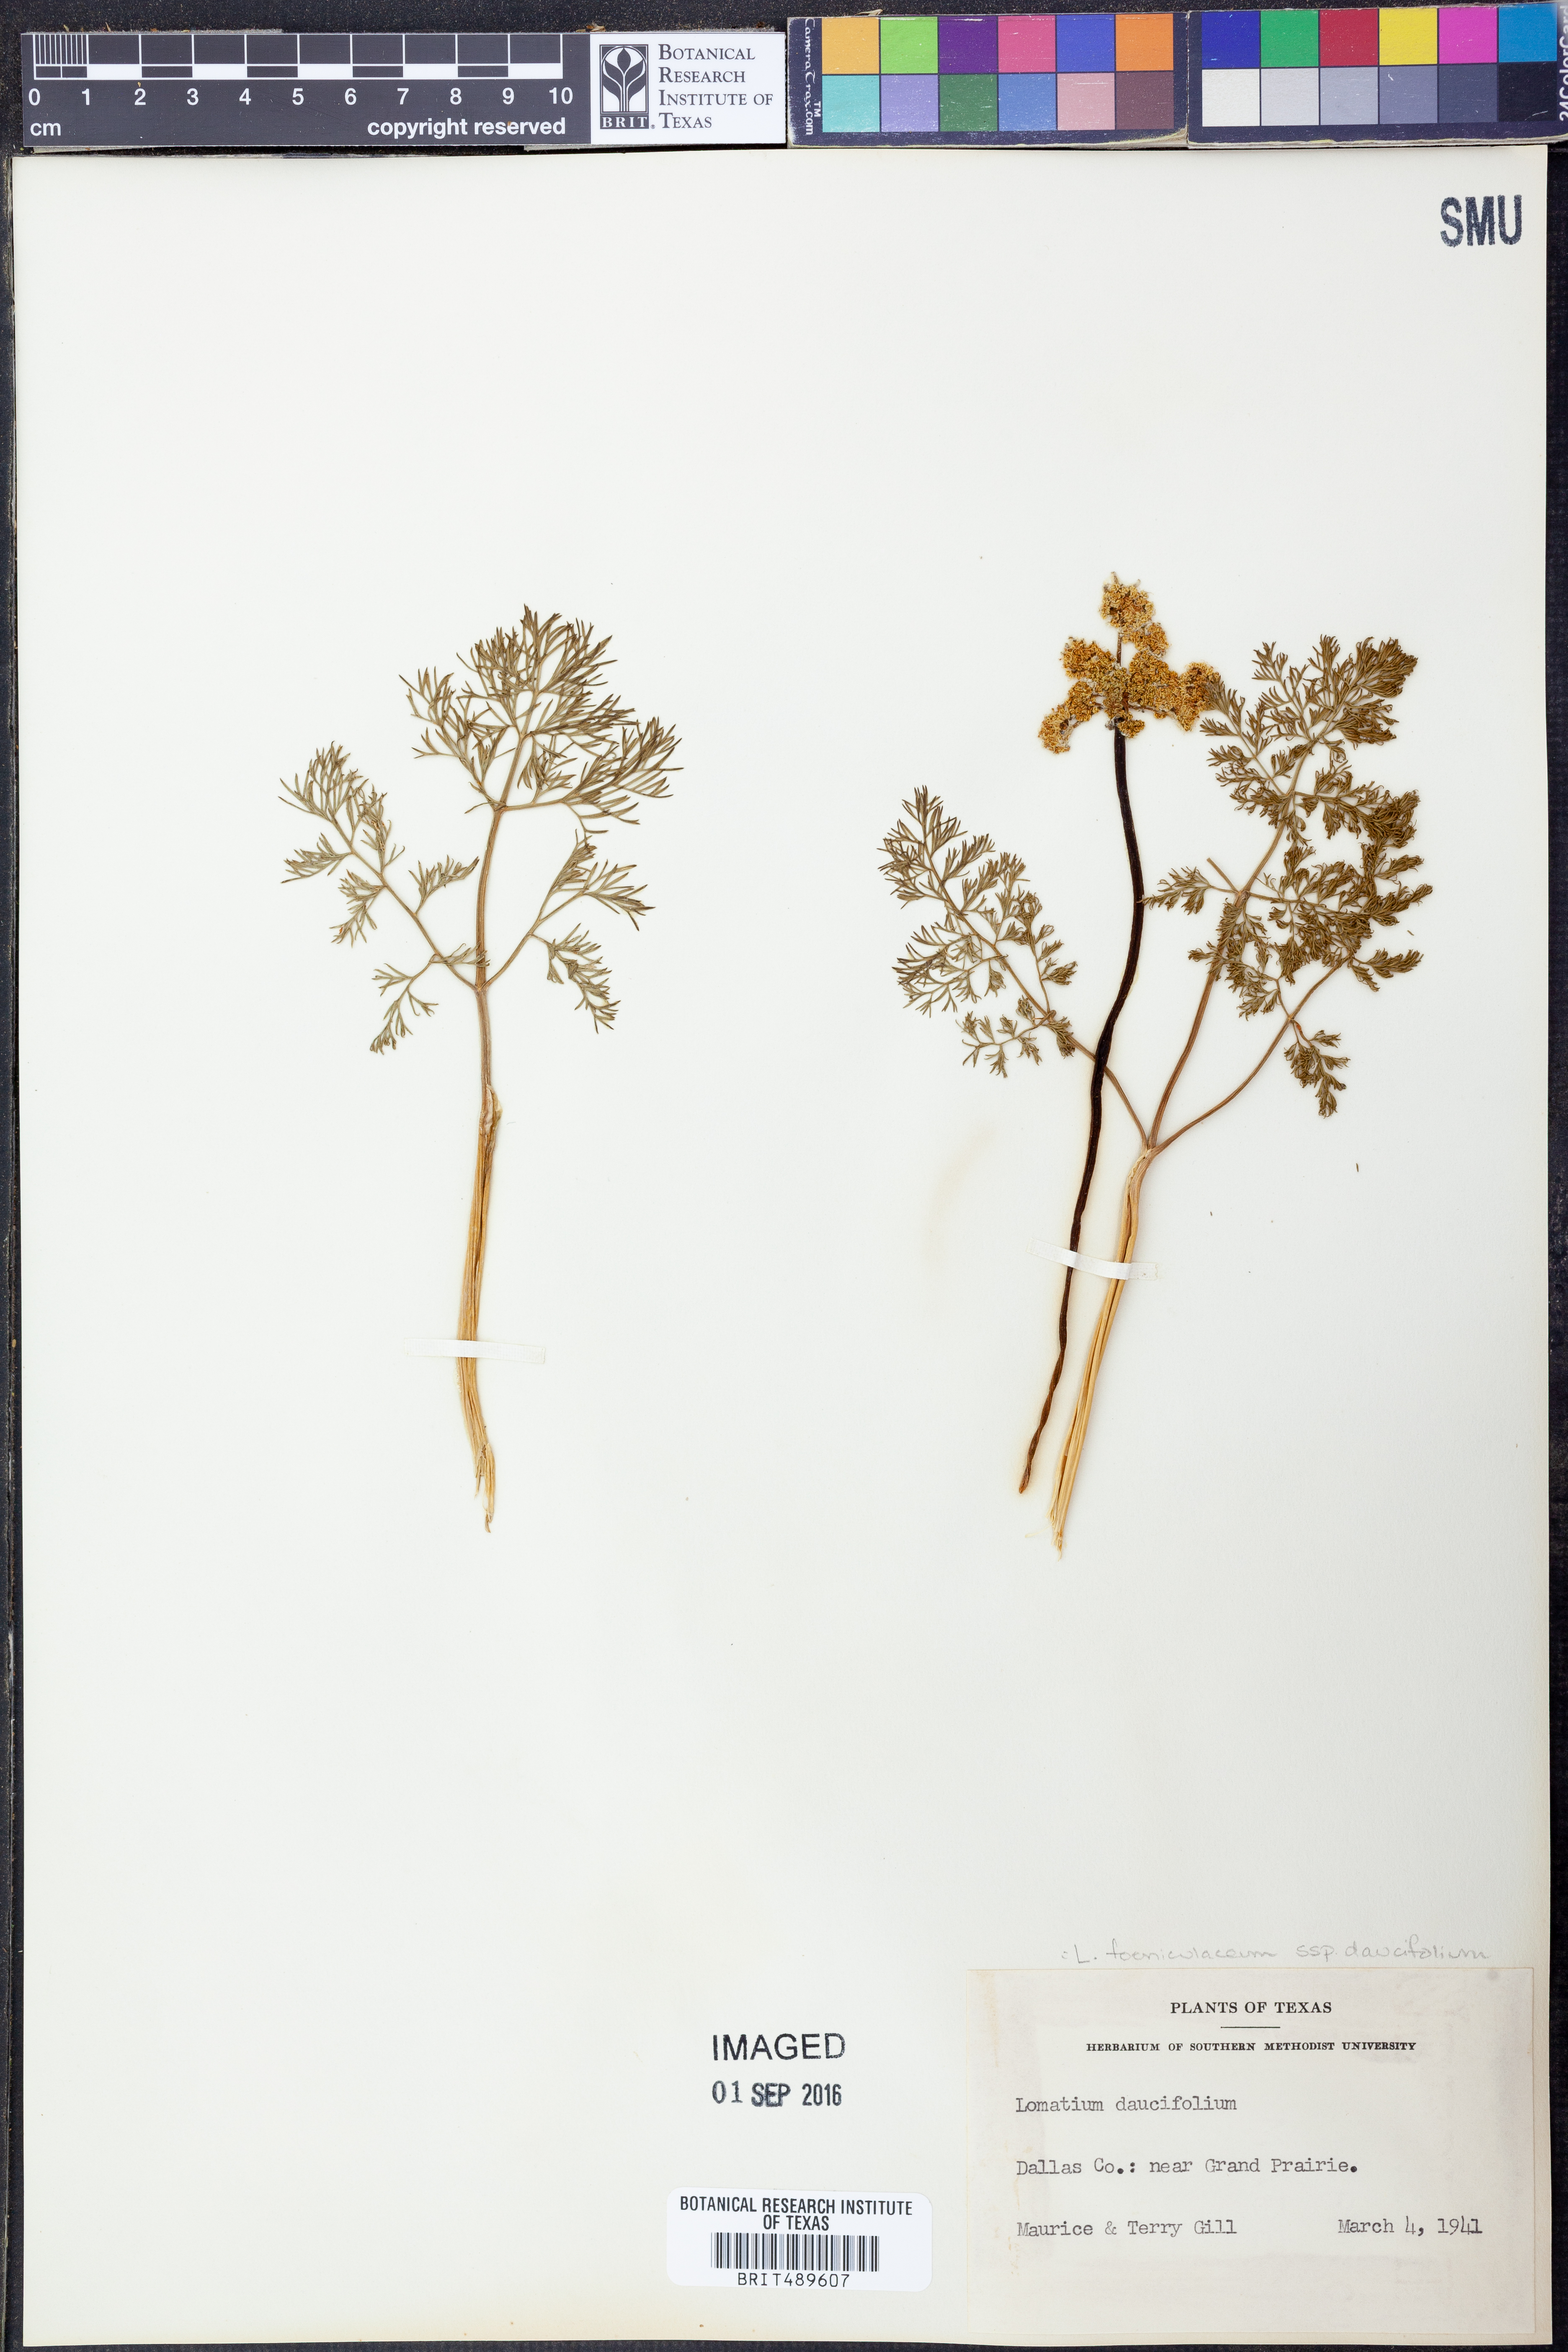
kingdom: Plantae
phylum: Tracheophyta
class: Magnoliopsida
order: Apiales
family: Apiaceae
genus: Lomatium
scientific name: Lomatium foeniculaceum
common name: Desert-parsley
